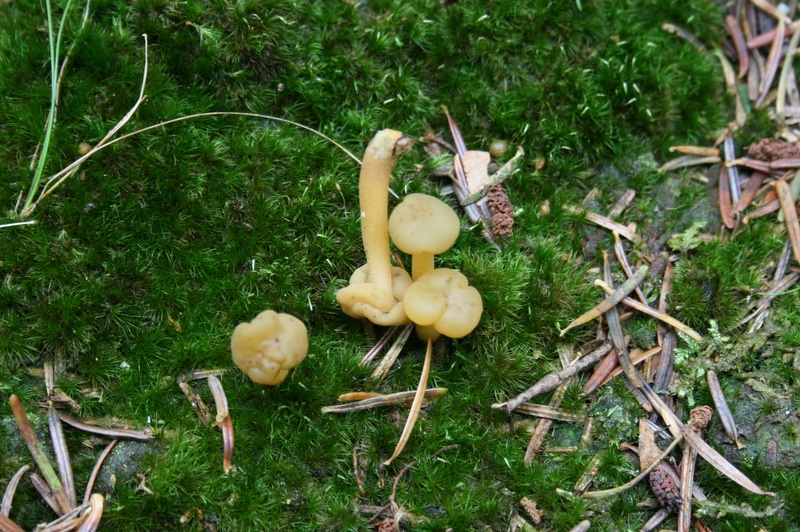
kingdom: Fungi
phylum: Ascomycota
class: Leotiomycetes
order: Leotiales
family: Leotiaceae
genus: Leotia
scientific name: Leotia lubrica
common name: ravsvamp
